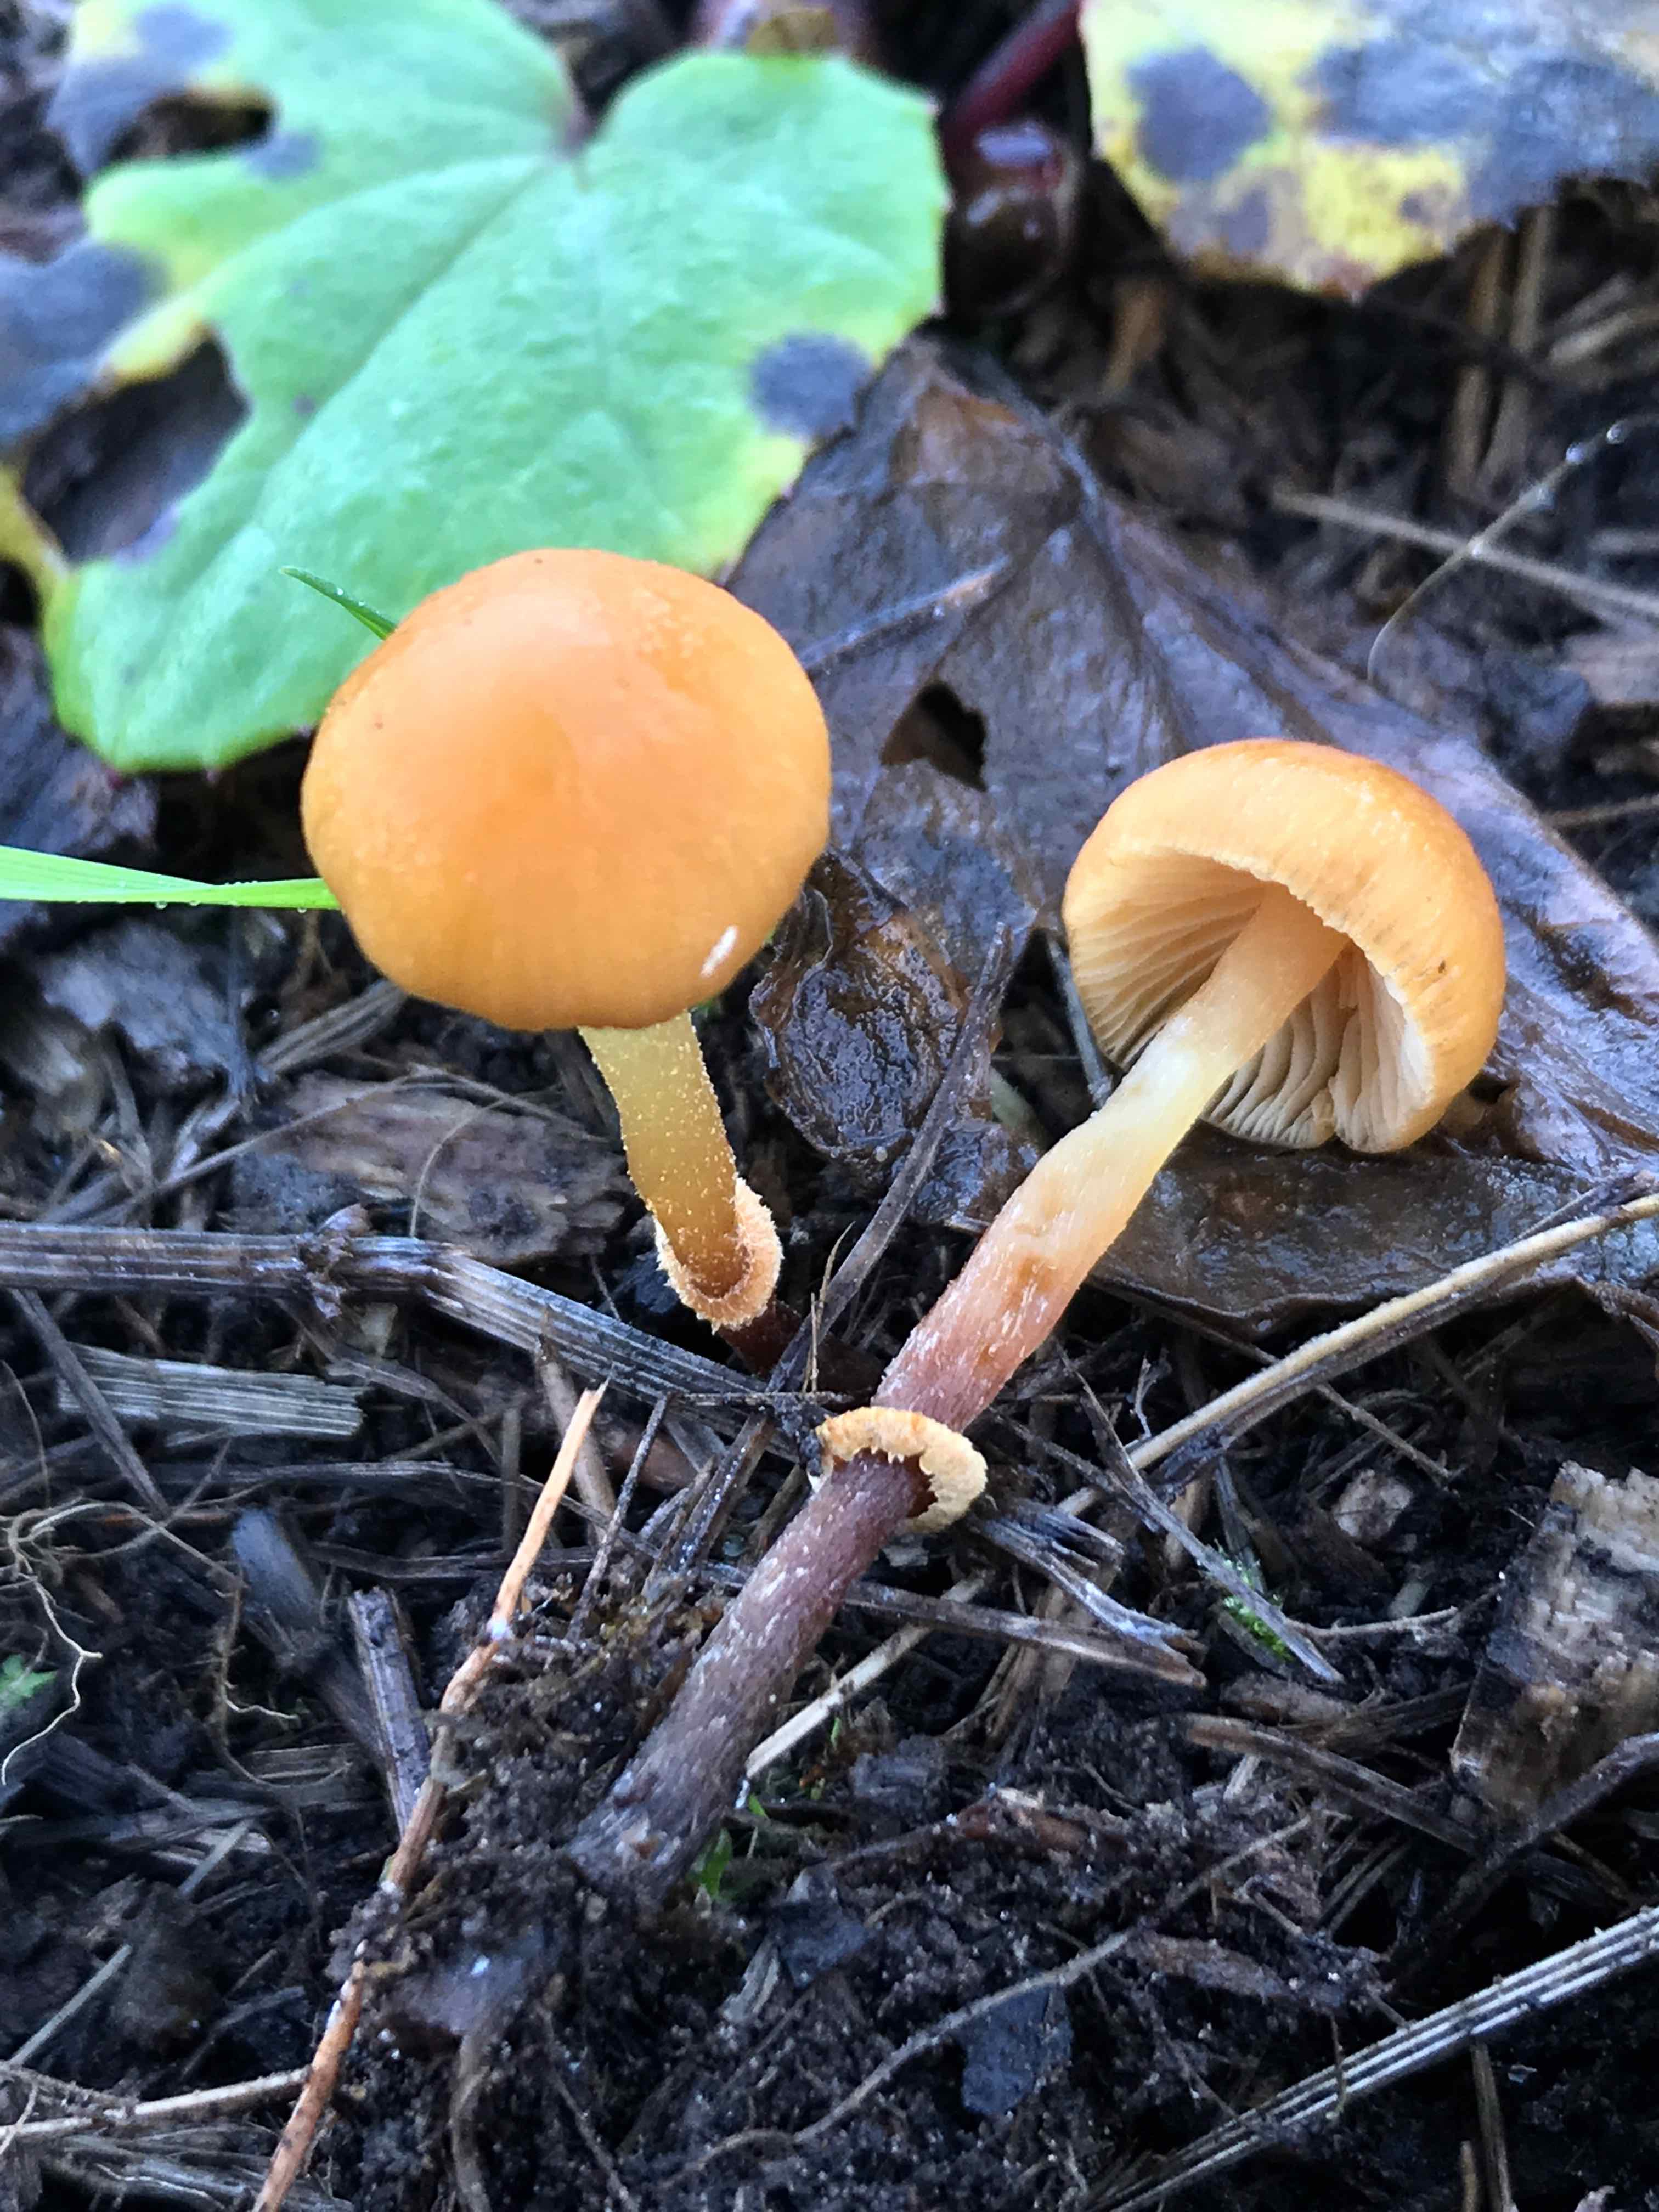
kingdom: Fungi
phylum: Basidiomycota
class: Agaricomycetes
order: Agaricales
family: Hymenogastraceae
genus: Galerina
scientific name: Galerina marginata
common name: randbæltet hjelmhat
